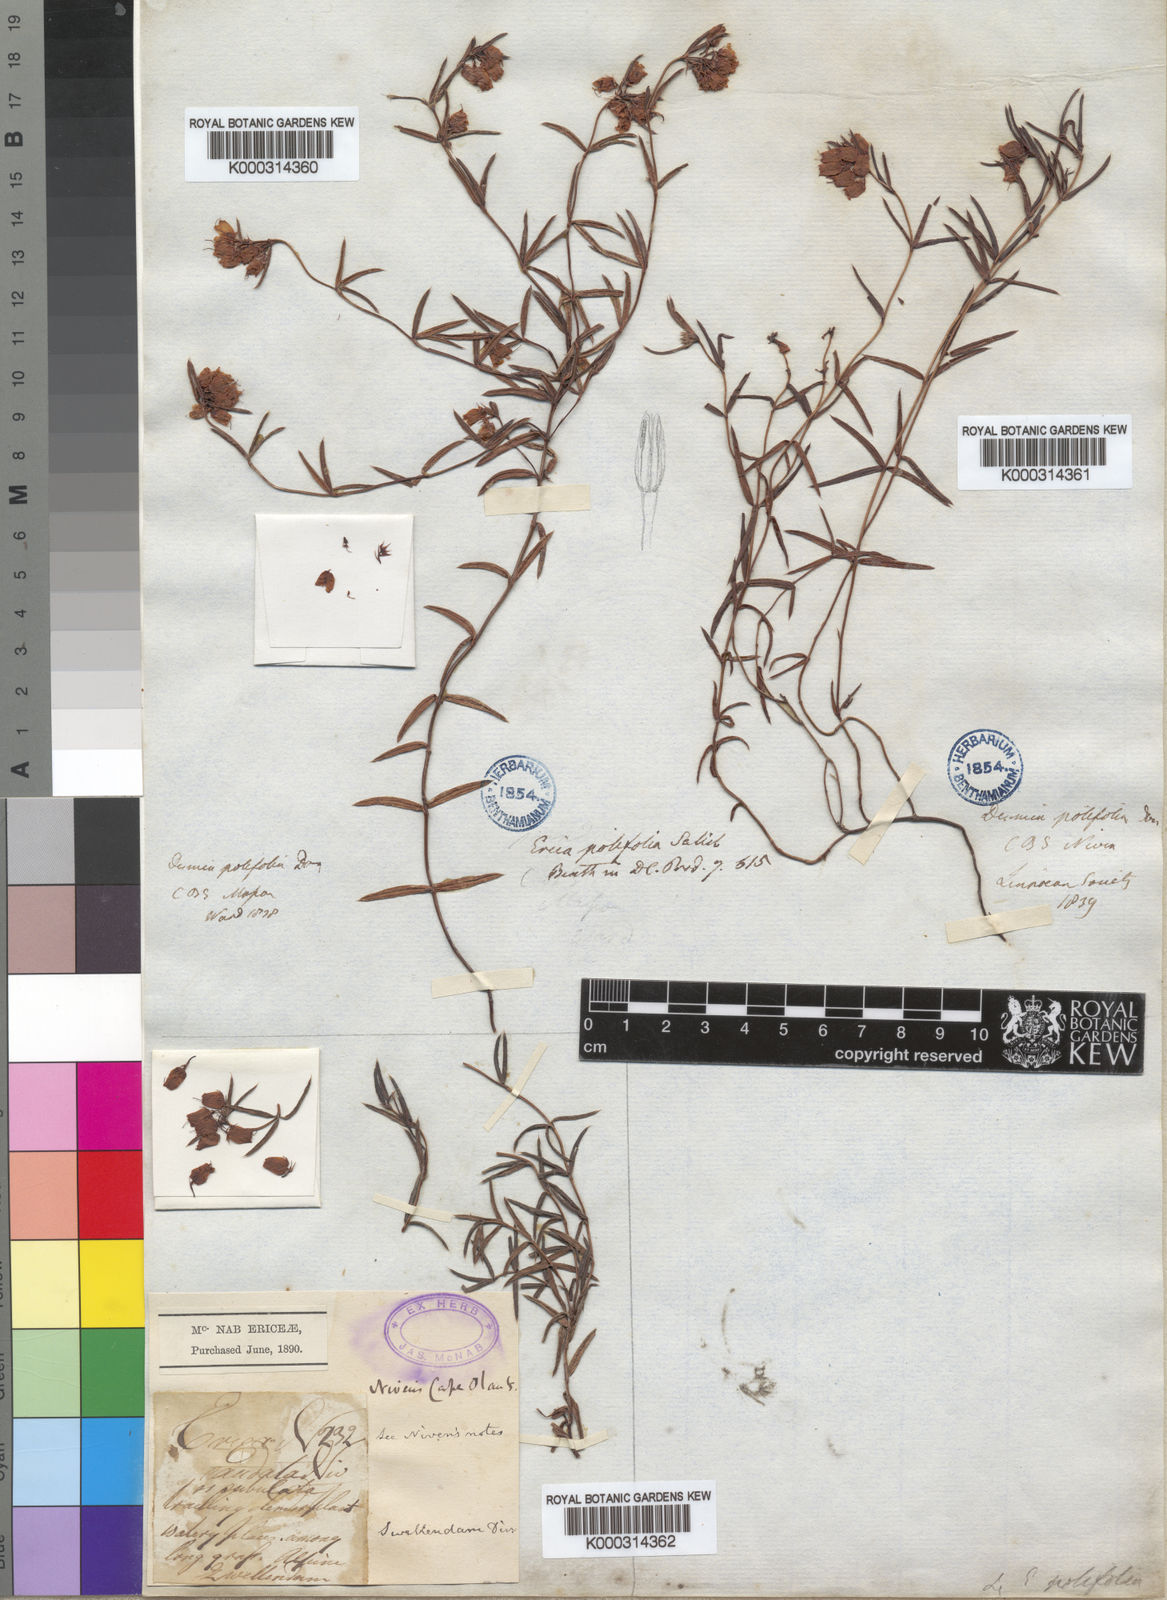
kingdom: Plantae
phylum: Tracheophyta
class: Magnoliopsida
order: Ericales
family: Ericaceae
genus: Erica
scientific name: Erica polifolia
